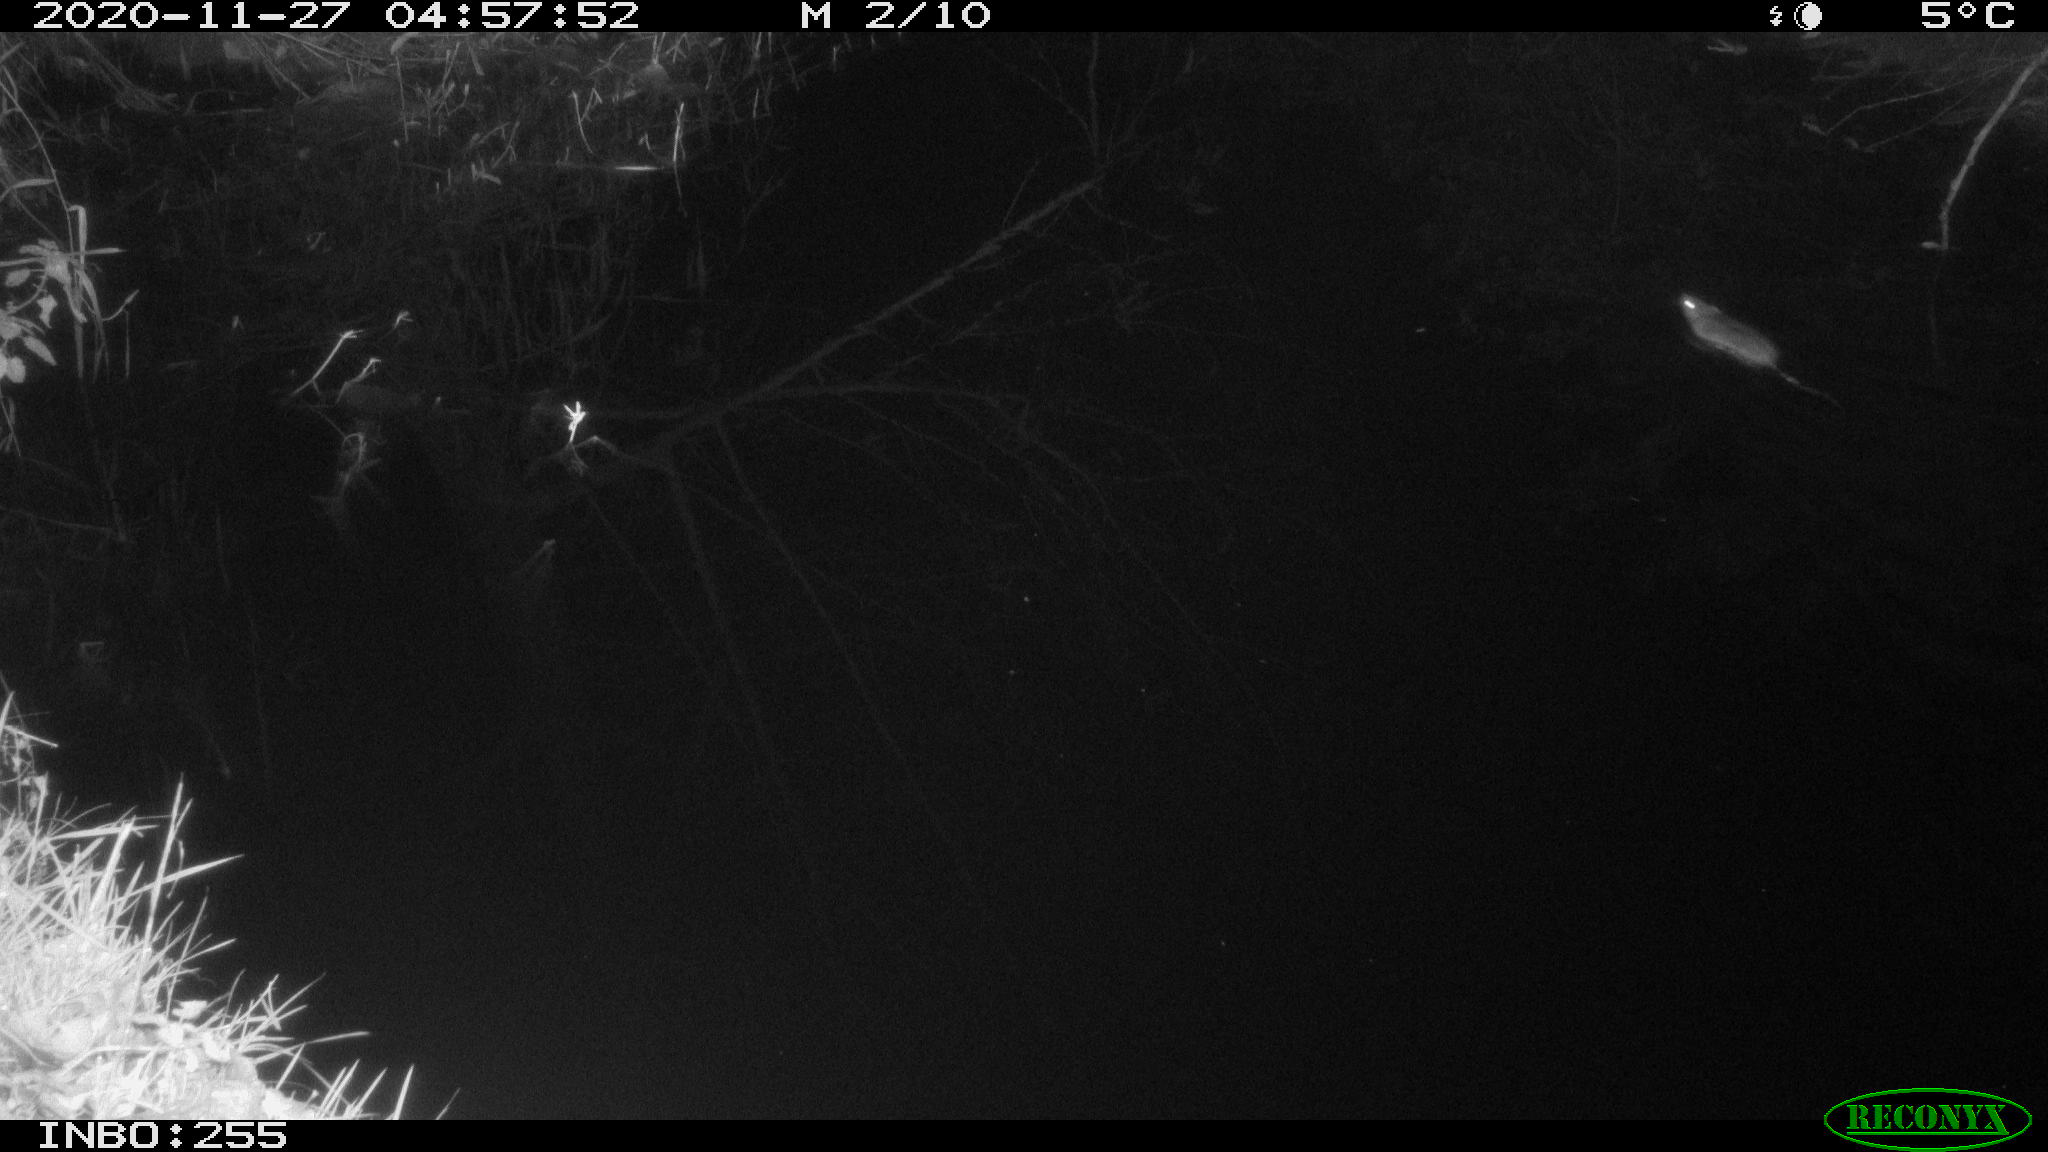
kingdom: Animalia
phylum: Chordata
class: Mammalia
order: Rodentia
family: Muridae
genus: Rattus
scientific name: Rattus norvegicus
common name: Brown rat
